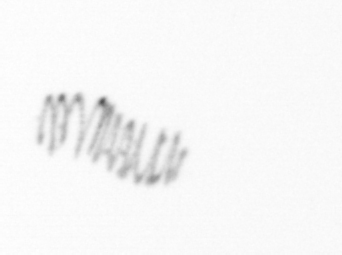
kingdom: Chromista
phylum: Ochrophyta
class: Bacillariophyceae
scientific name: Bacillariophyceae
